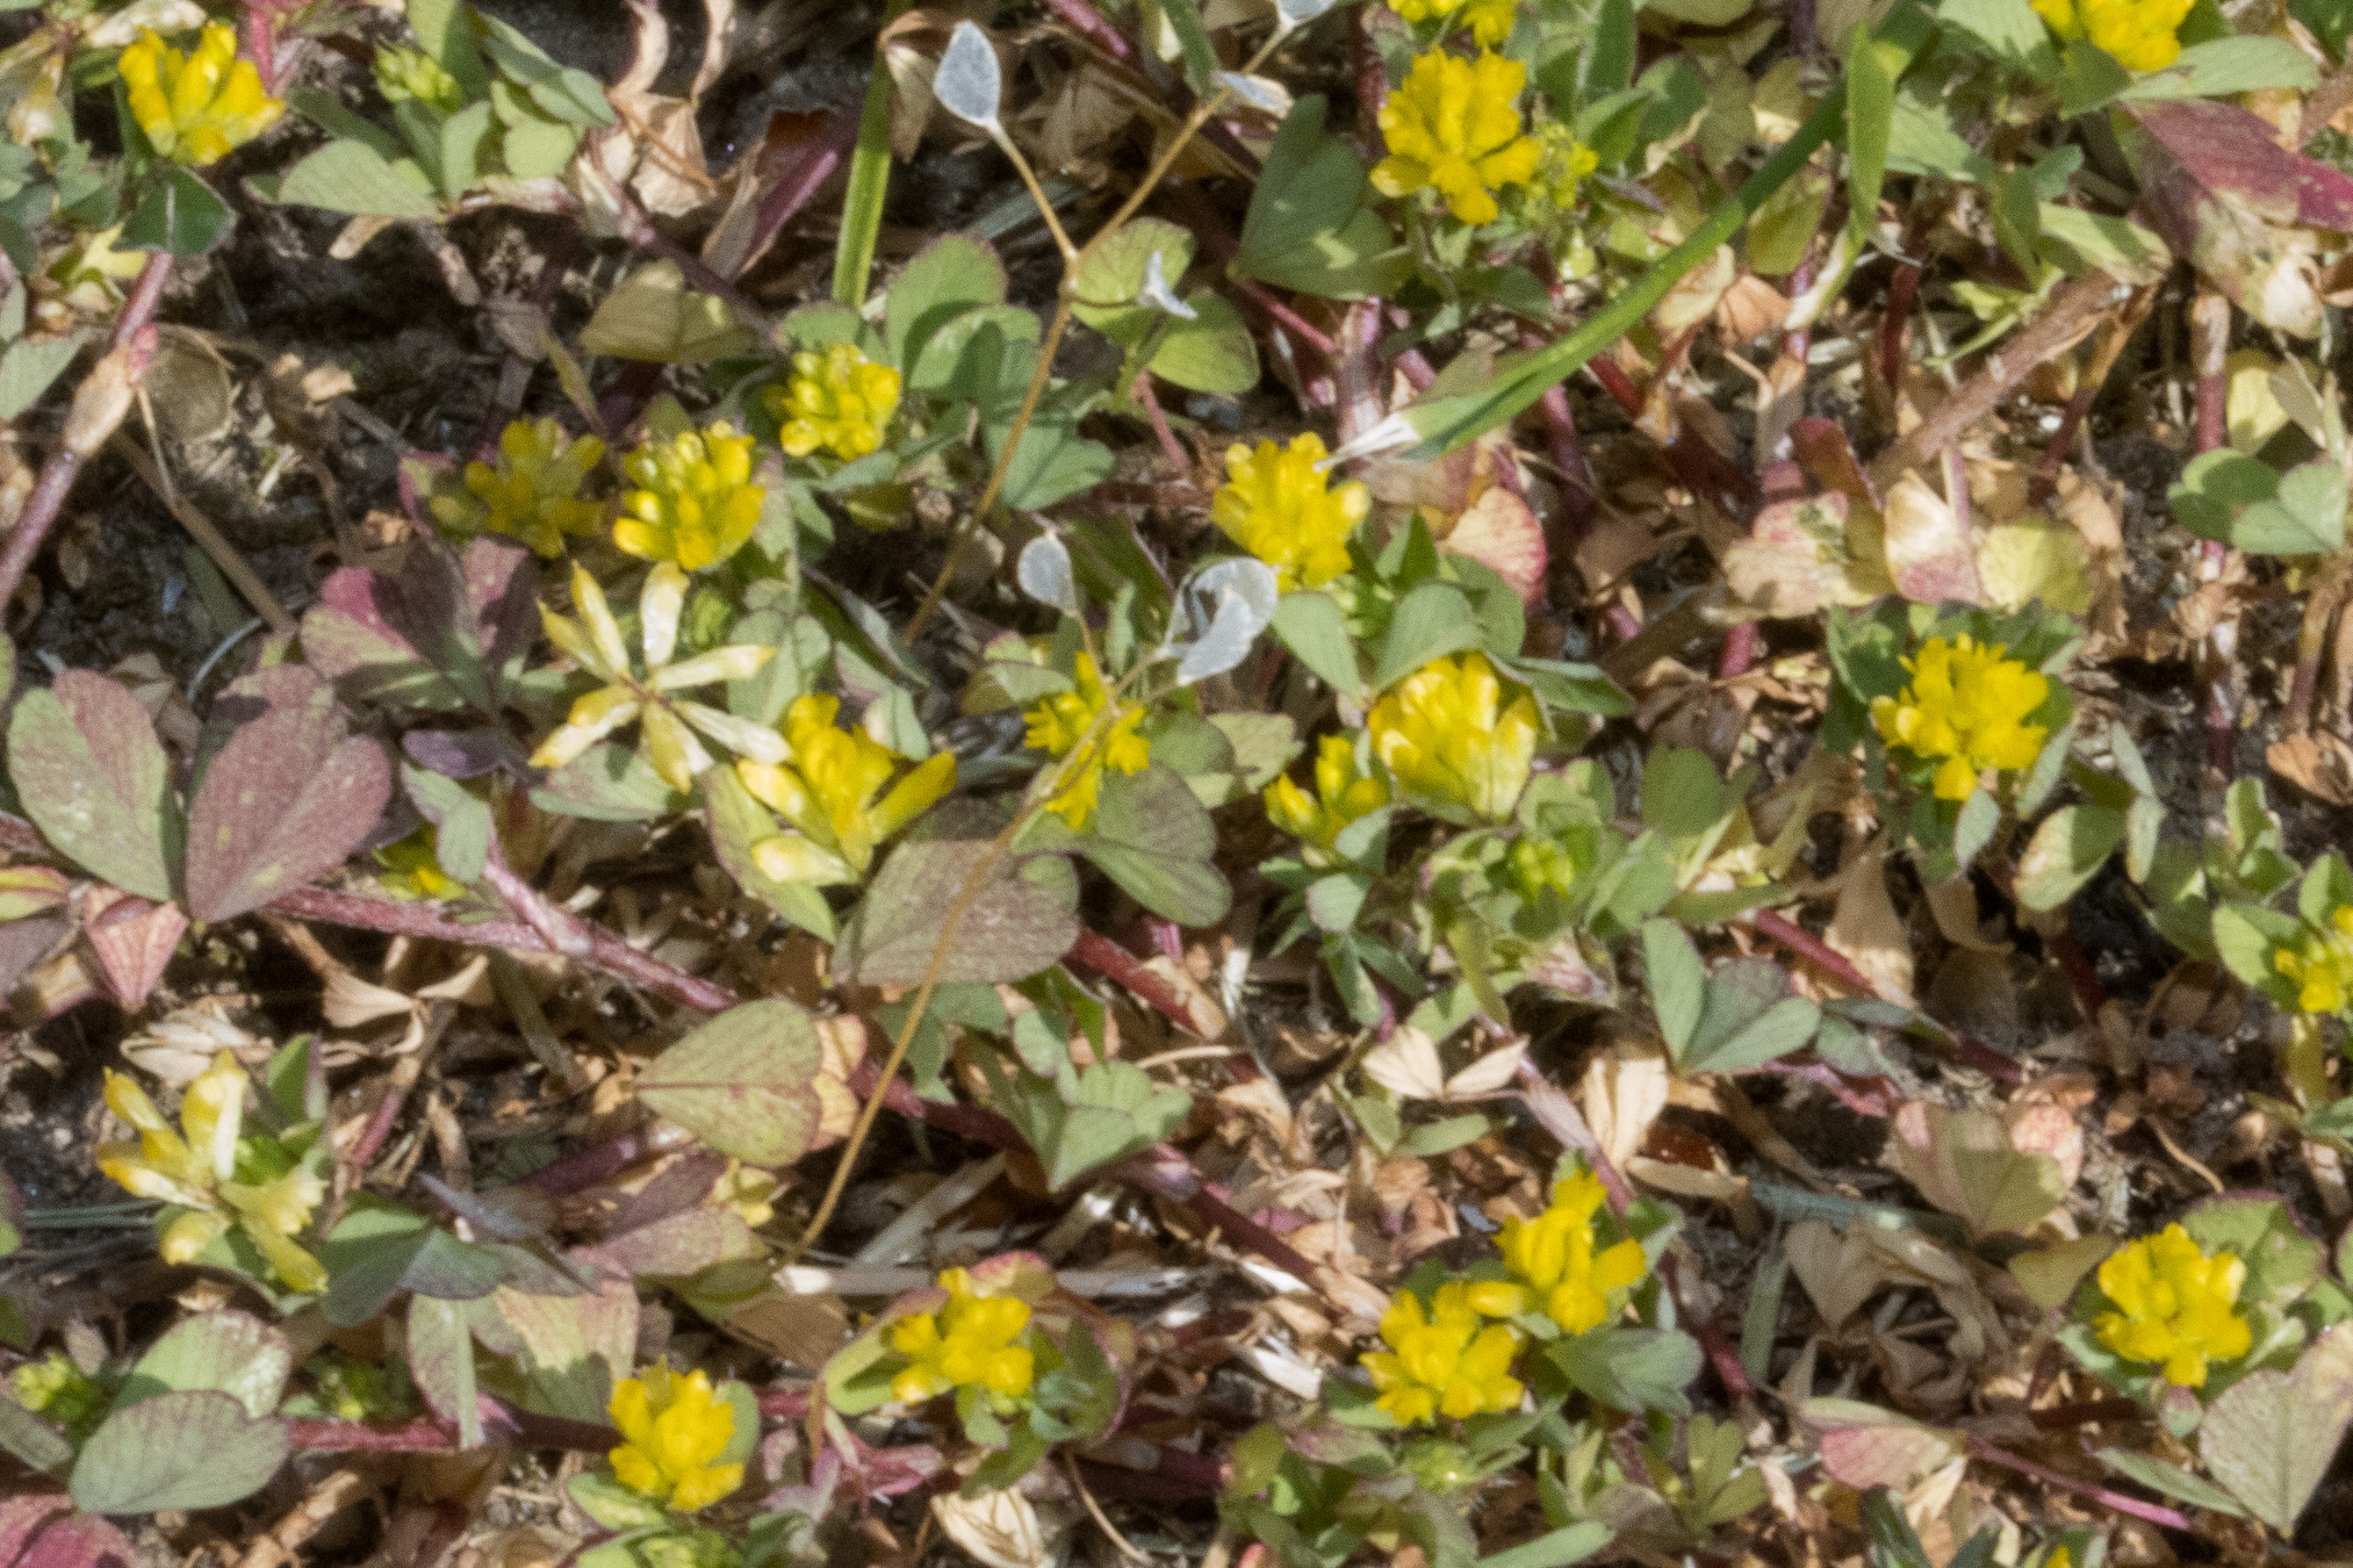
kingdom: Plantae
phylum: Tracheophyta
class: Magnoliopsida
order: Fabales
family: Fabaceae
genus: Trifolium
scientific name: Trifolium dubium
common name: Fin kløver
